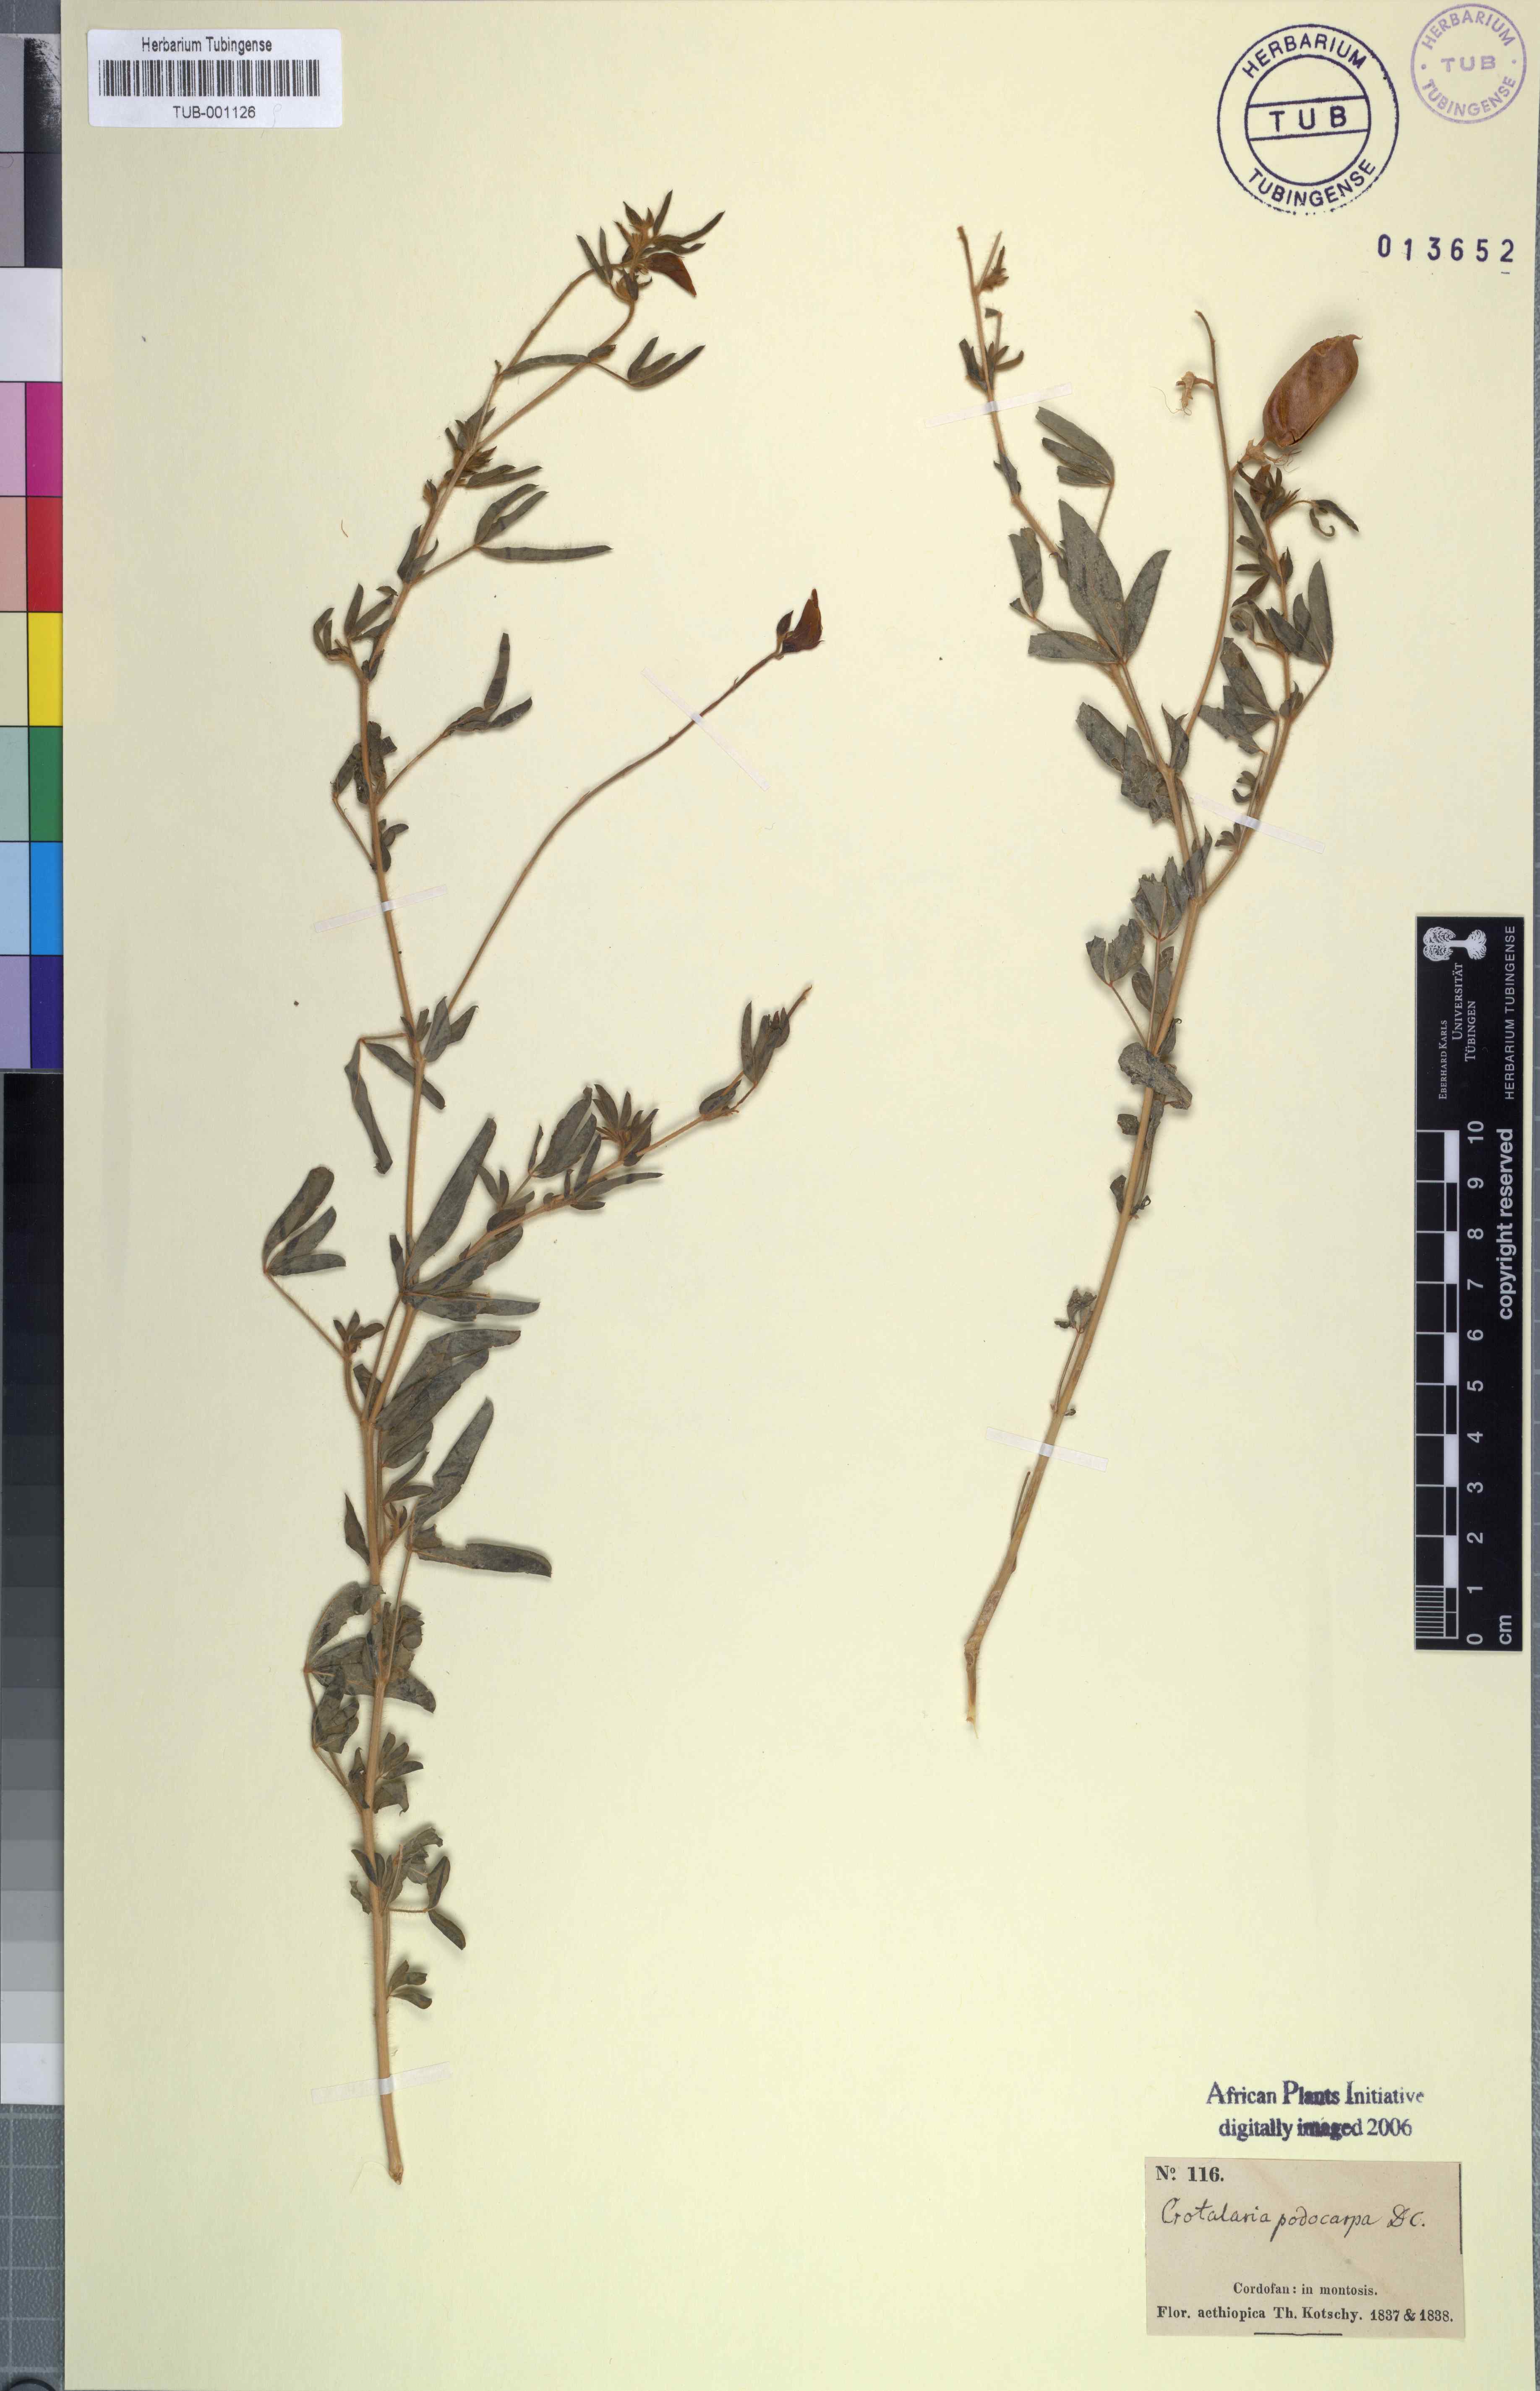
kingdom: Plantae
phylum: Tracheophyta
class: Magnoliopsida
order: Fabales
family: Fabaceae
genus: Crotalaria
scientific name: Crotalaria podocarpa
